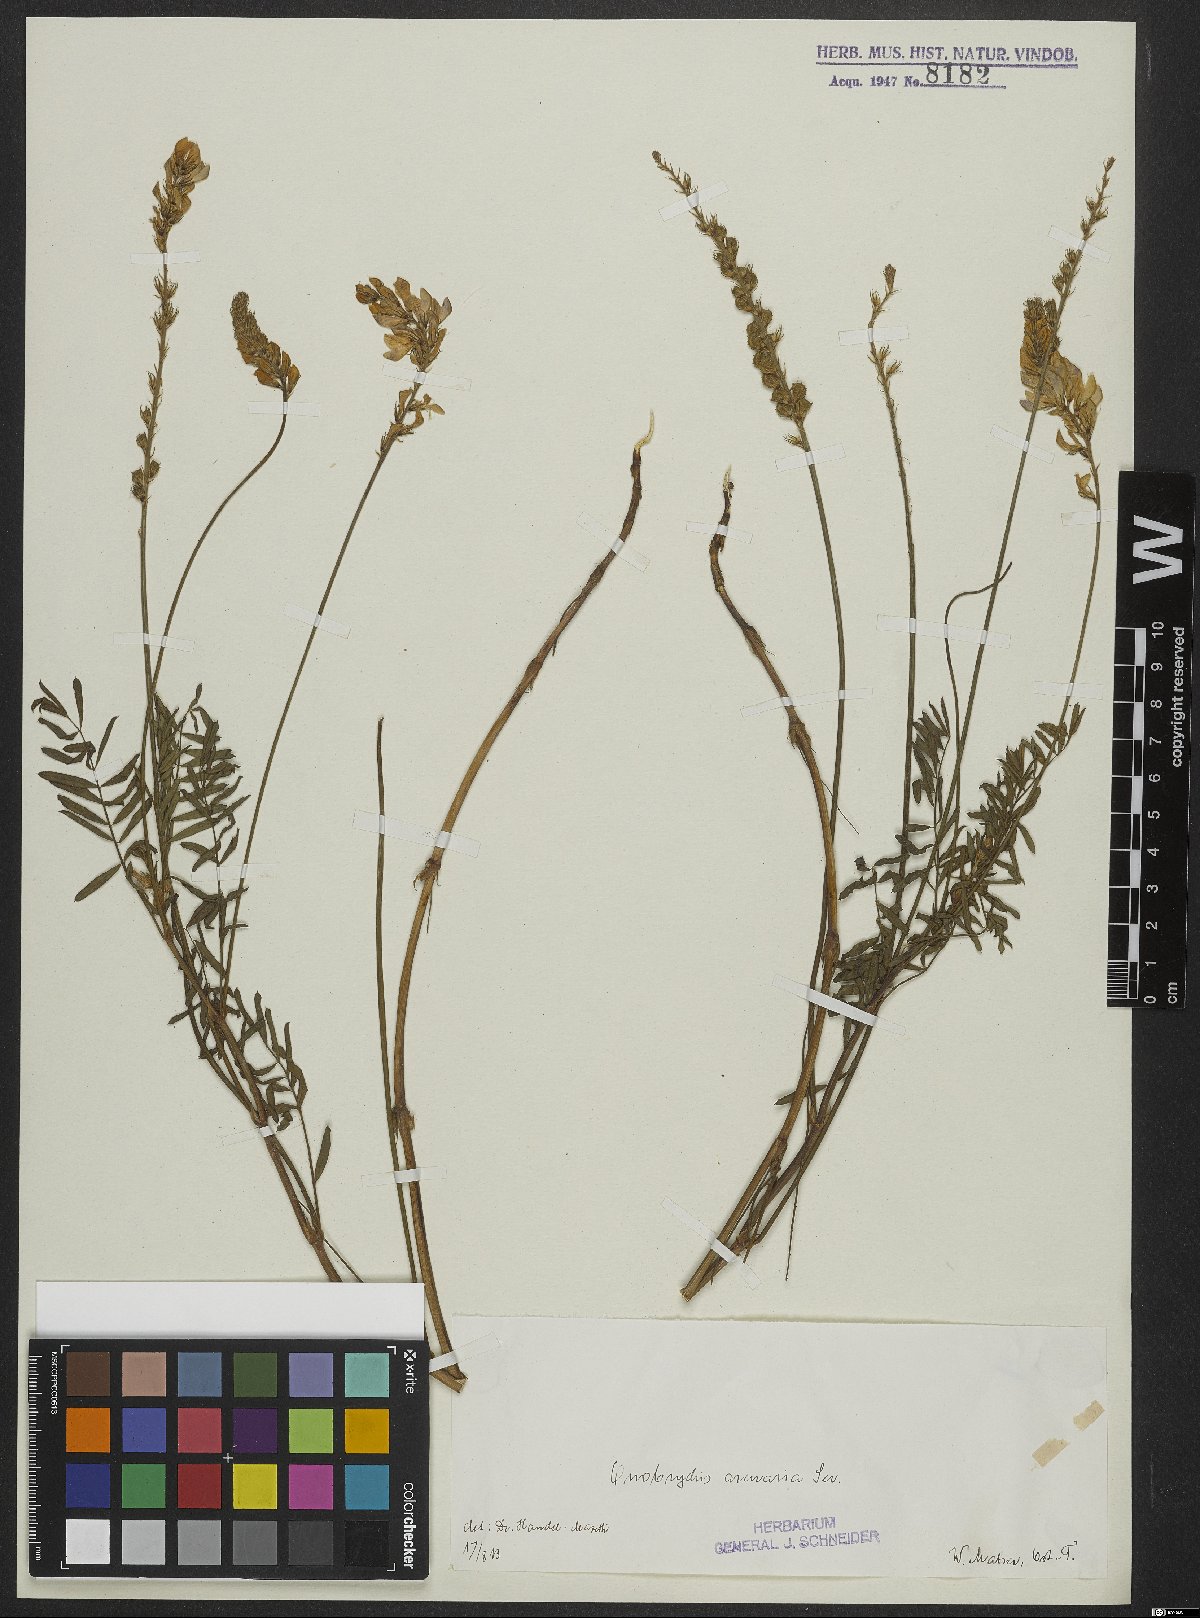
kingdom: Plantae
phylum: Tracheophyta
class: Magnoliopsida
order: Fabales
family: Fabaceae
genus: Onobrychis
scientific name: Onobrychis arenaria
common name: Sand esparcet
